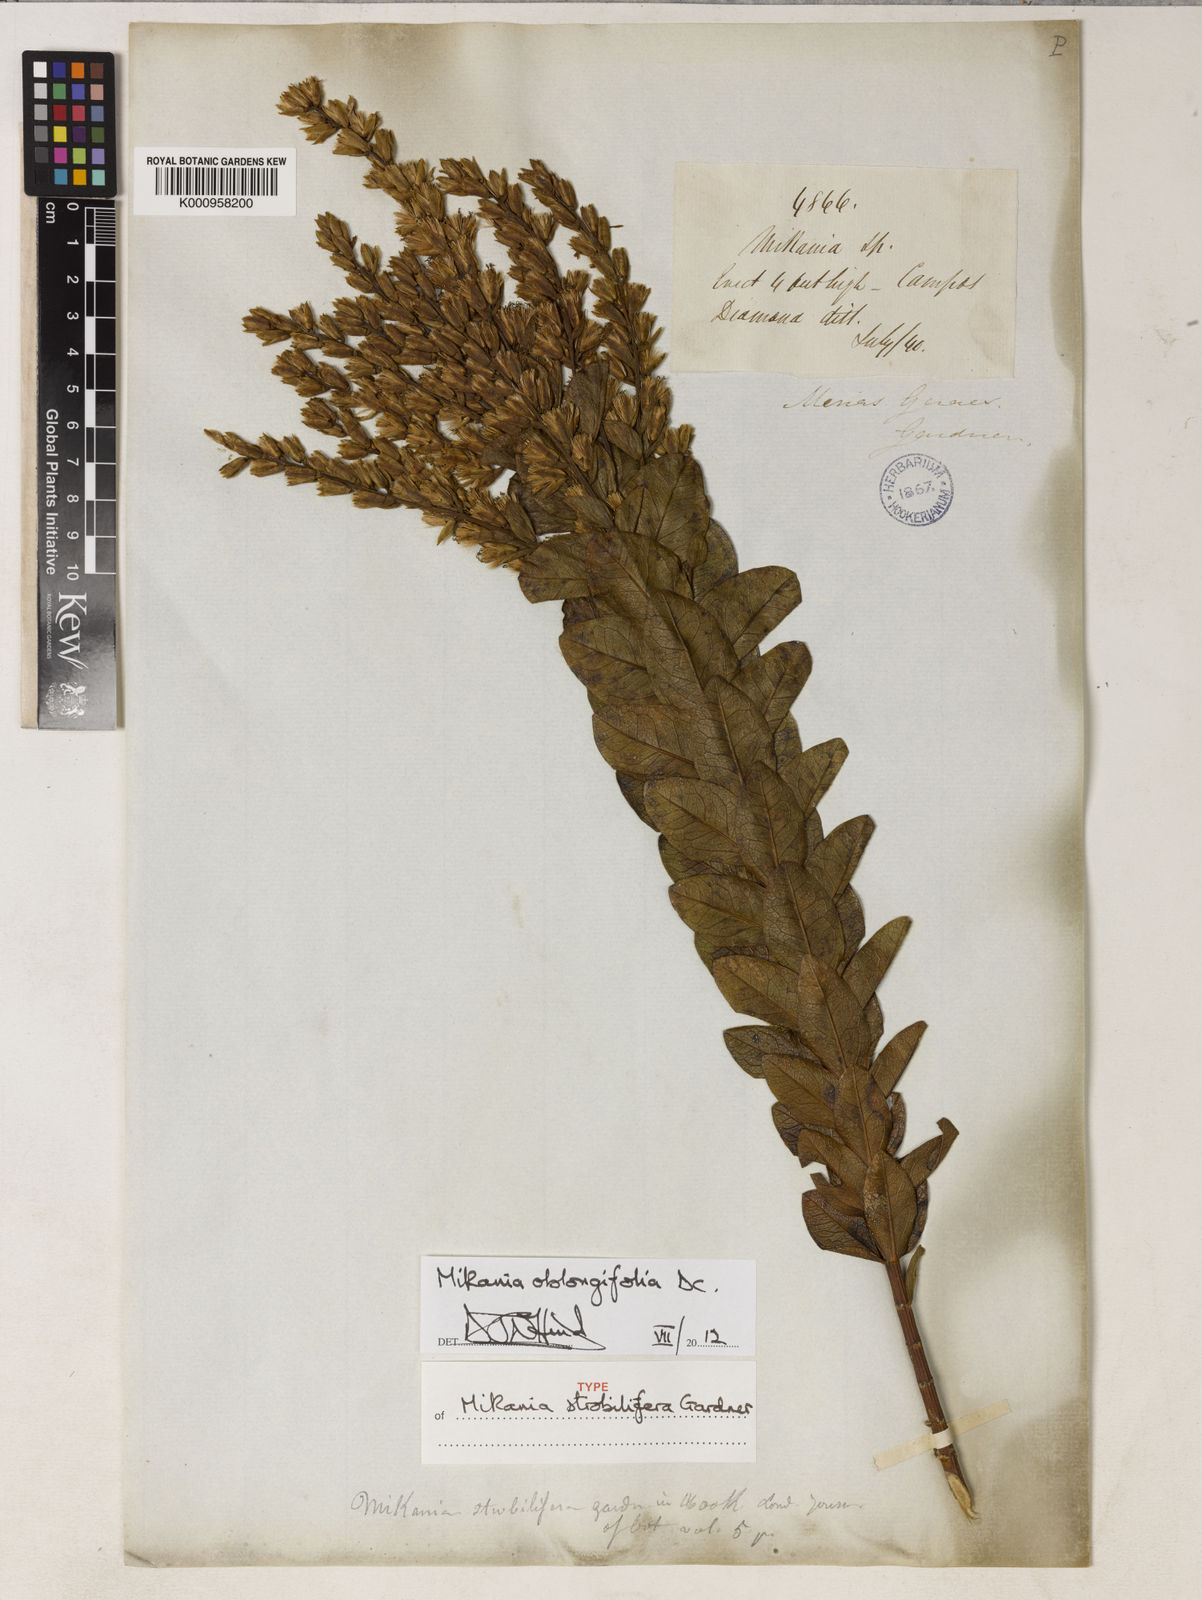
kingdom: Plantae
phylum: Tracheophyta
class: Magnoliopsida
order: Asterales
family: Asteraceae
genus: Mikania
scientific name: Mikania oblongifolia
